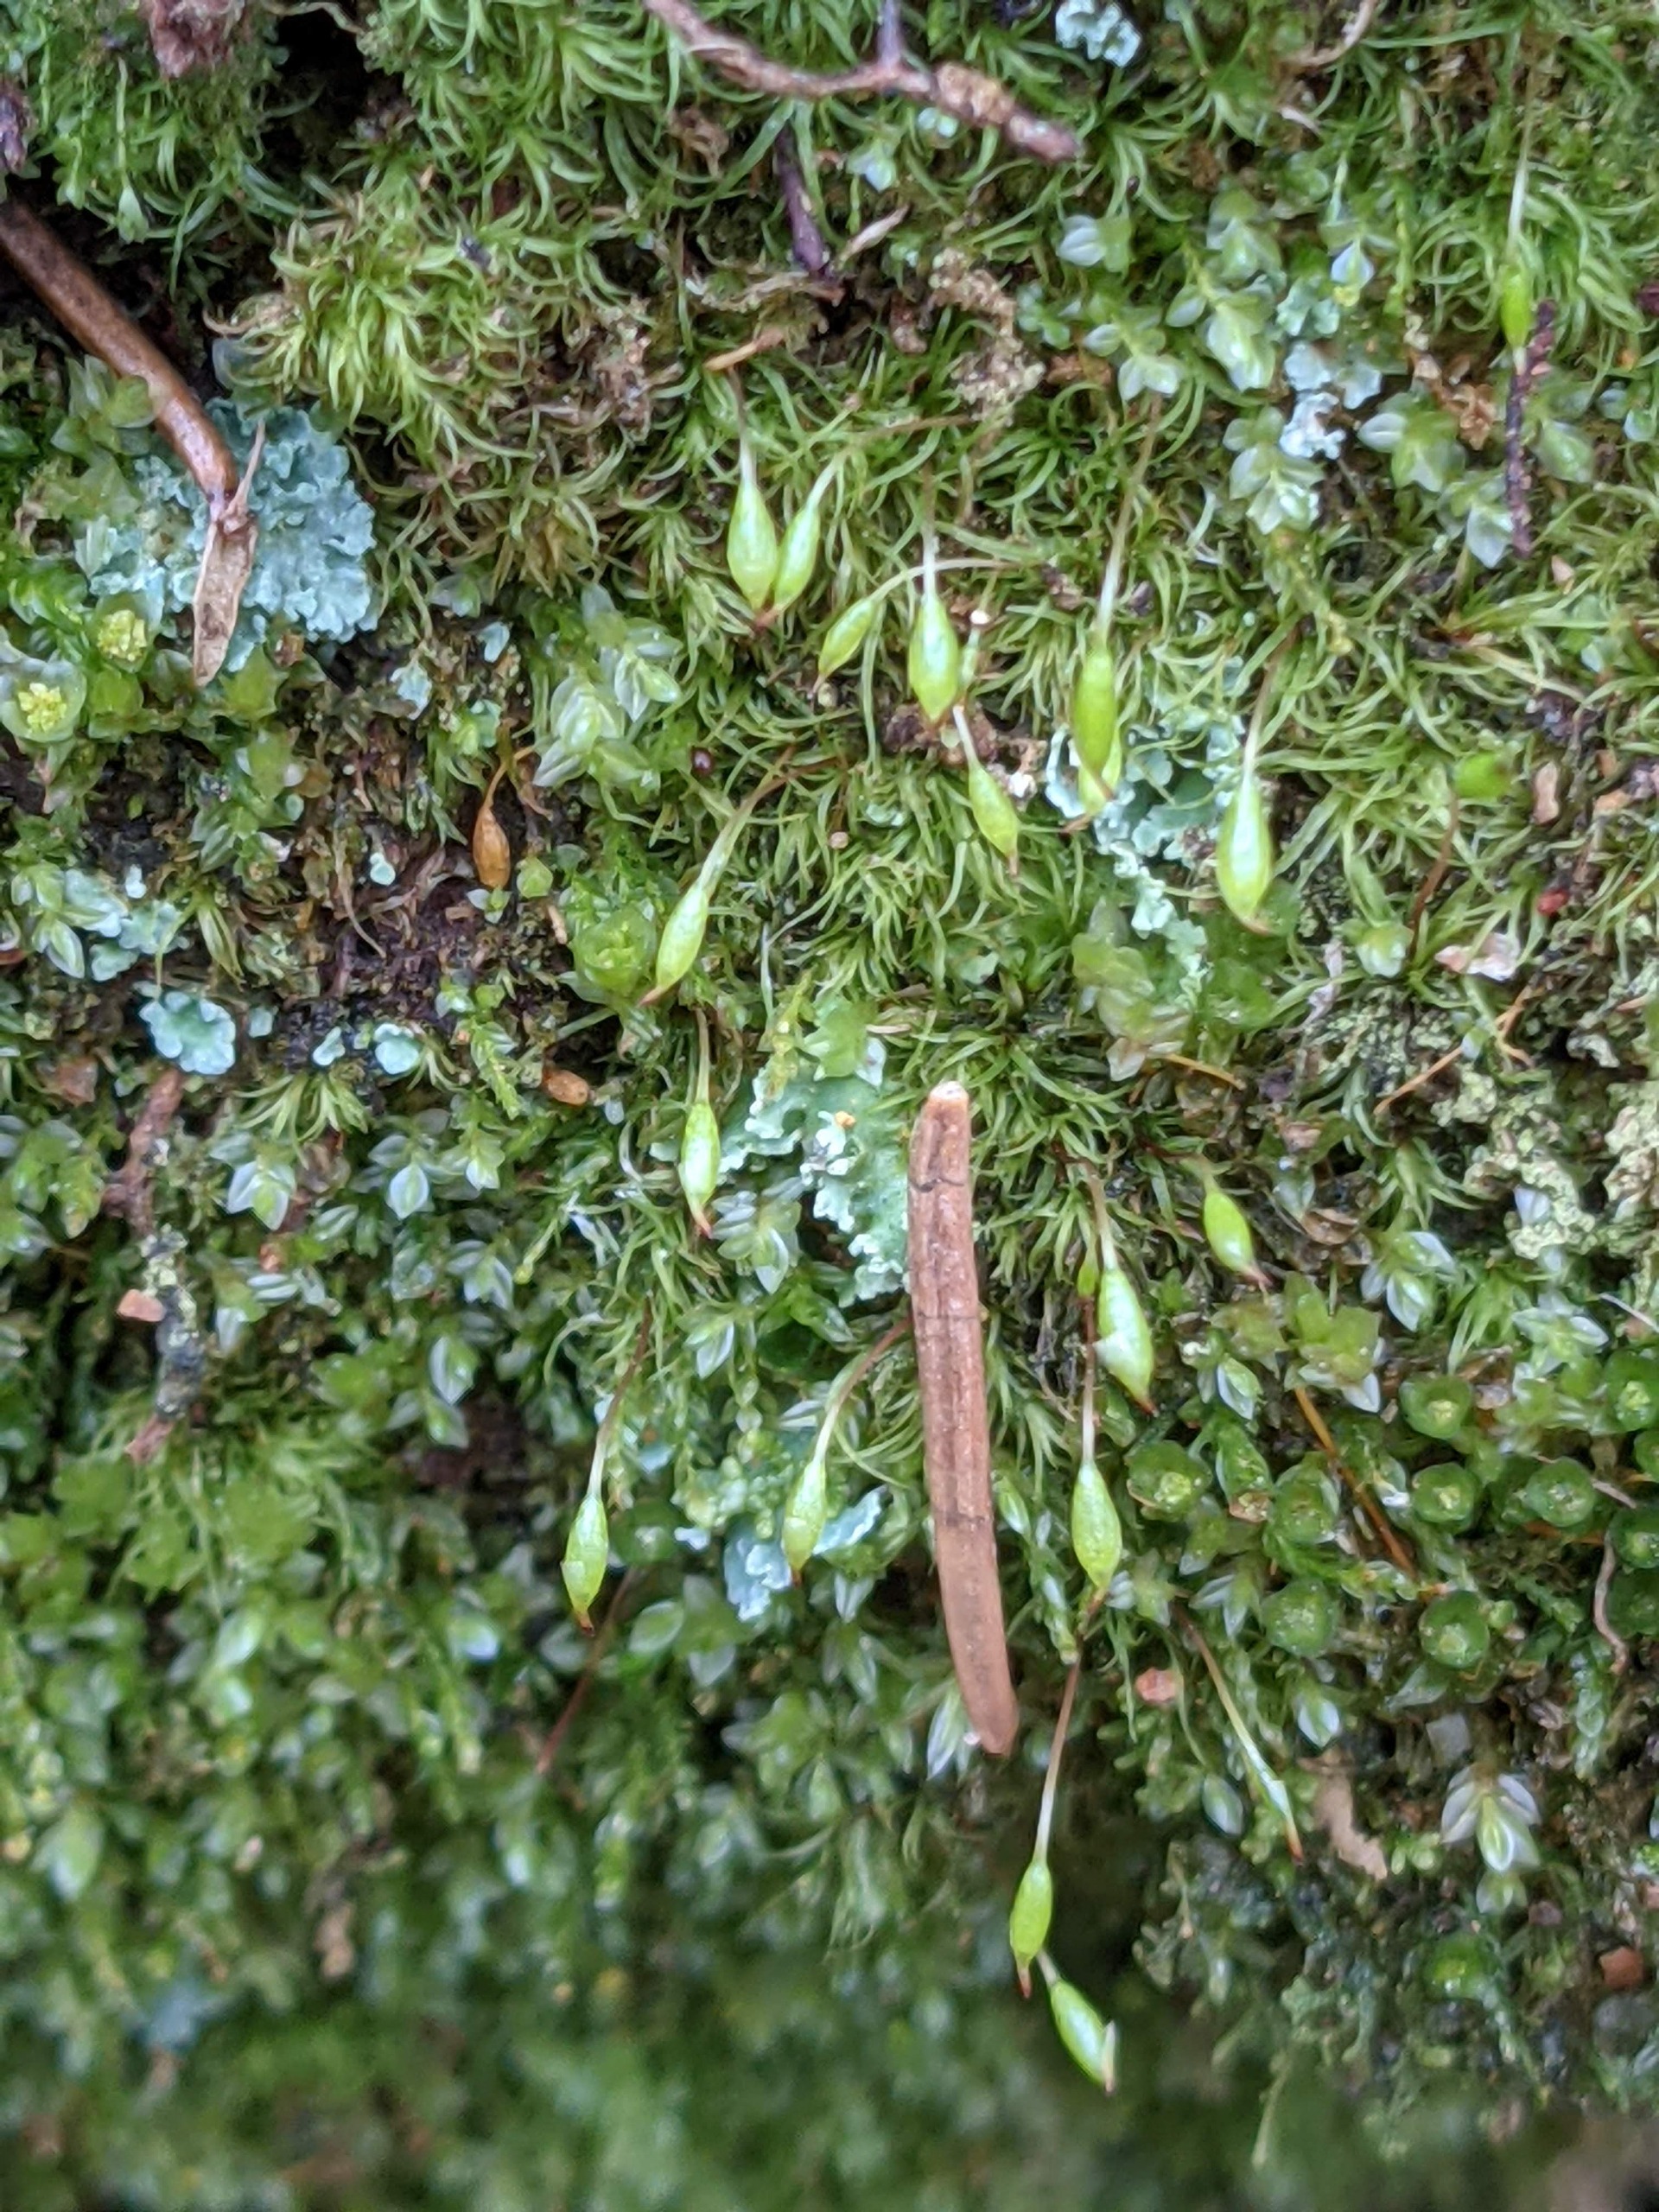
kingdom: Plantae
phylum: Bryophyta
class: Bryopsida
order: Orthodontiales
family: Orthodontiaceae
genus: Orthodontium
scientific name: Orthodontium lineare
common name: Smalbladet plysmos
